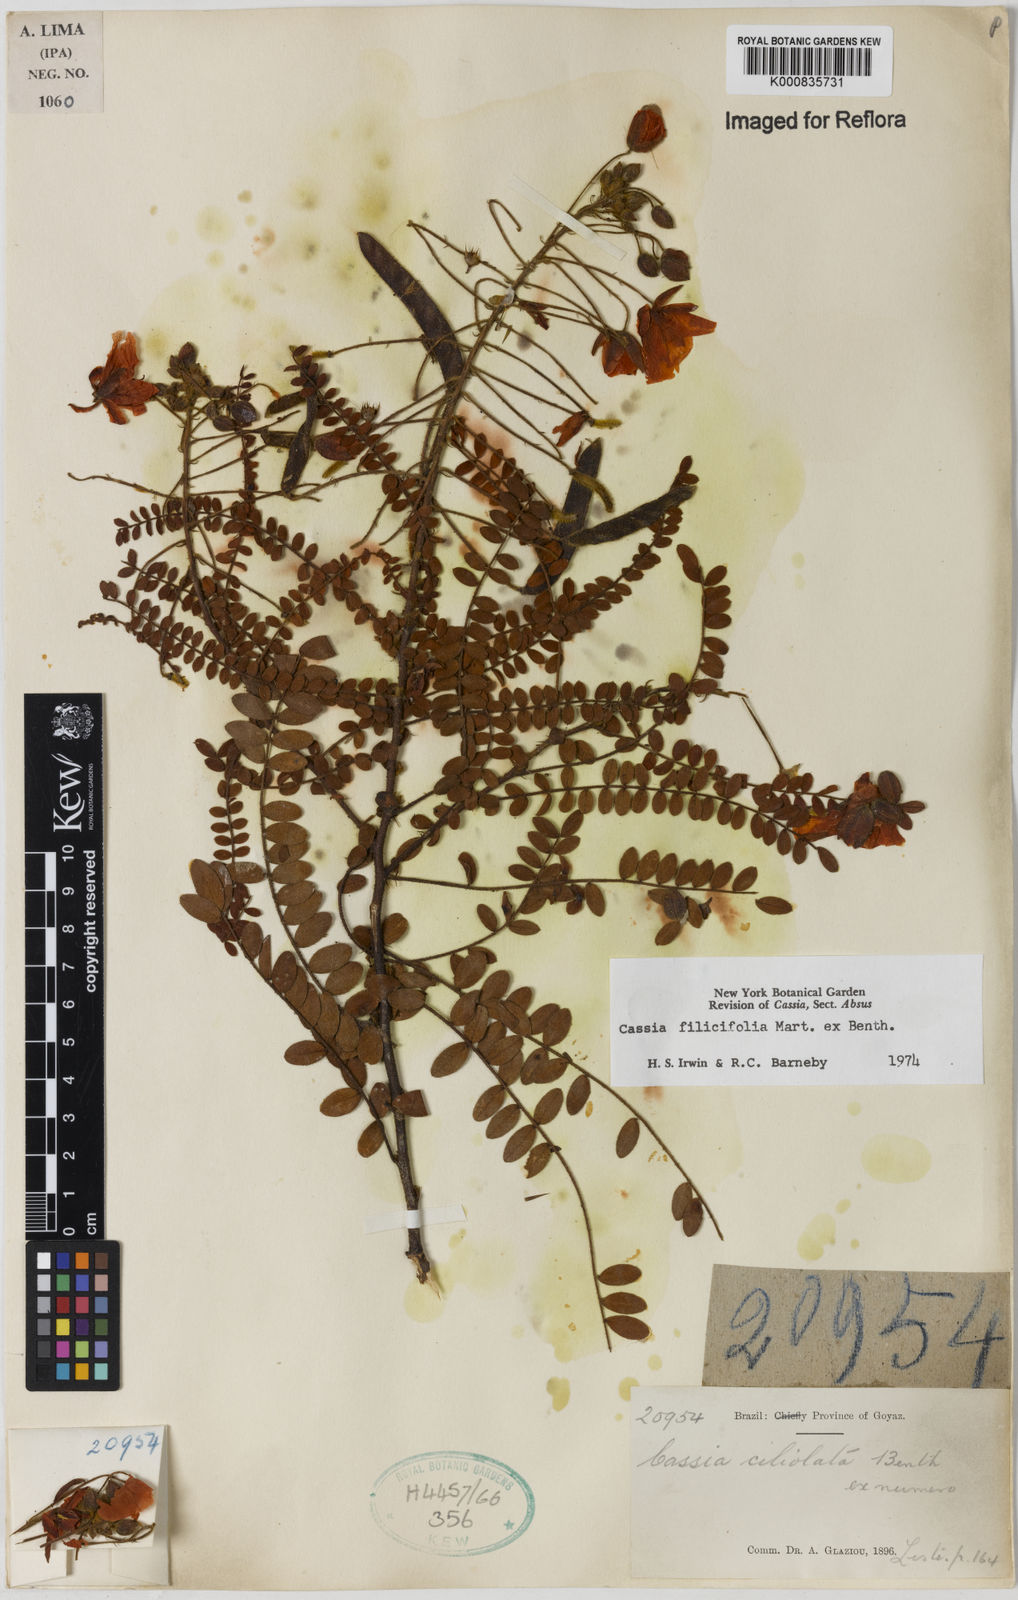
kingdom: Plantae
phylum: Tracheophyta
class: Magnoliopsida
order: Fabales
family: Fabaceae
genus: Chamaecrista
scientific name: Chamaecrista filicifolia
